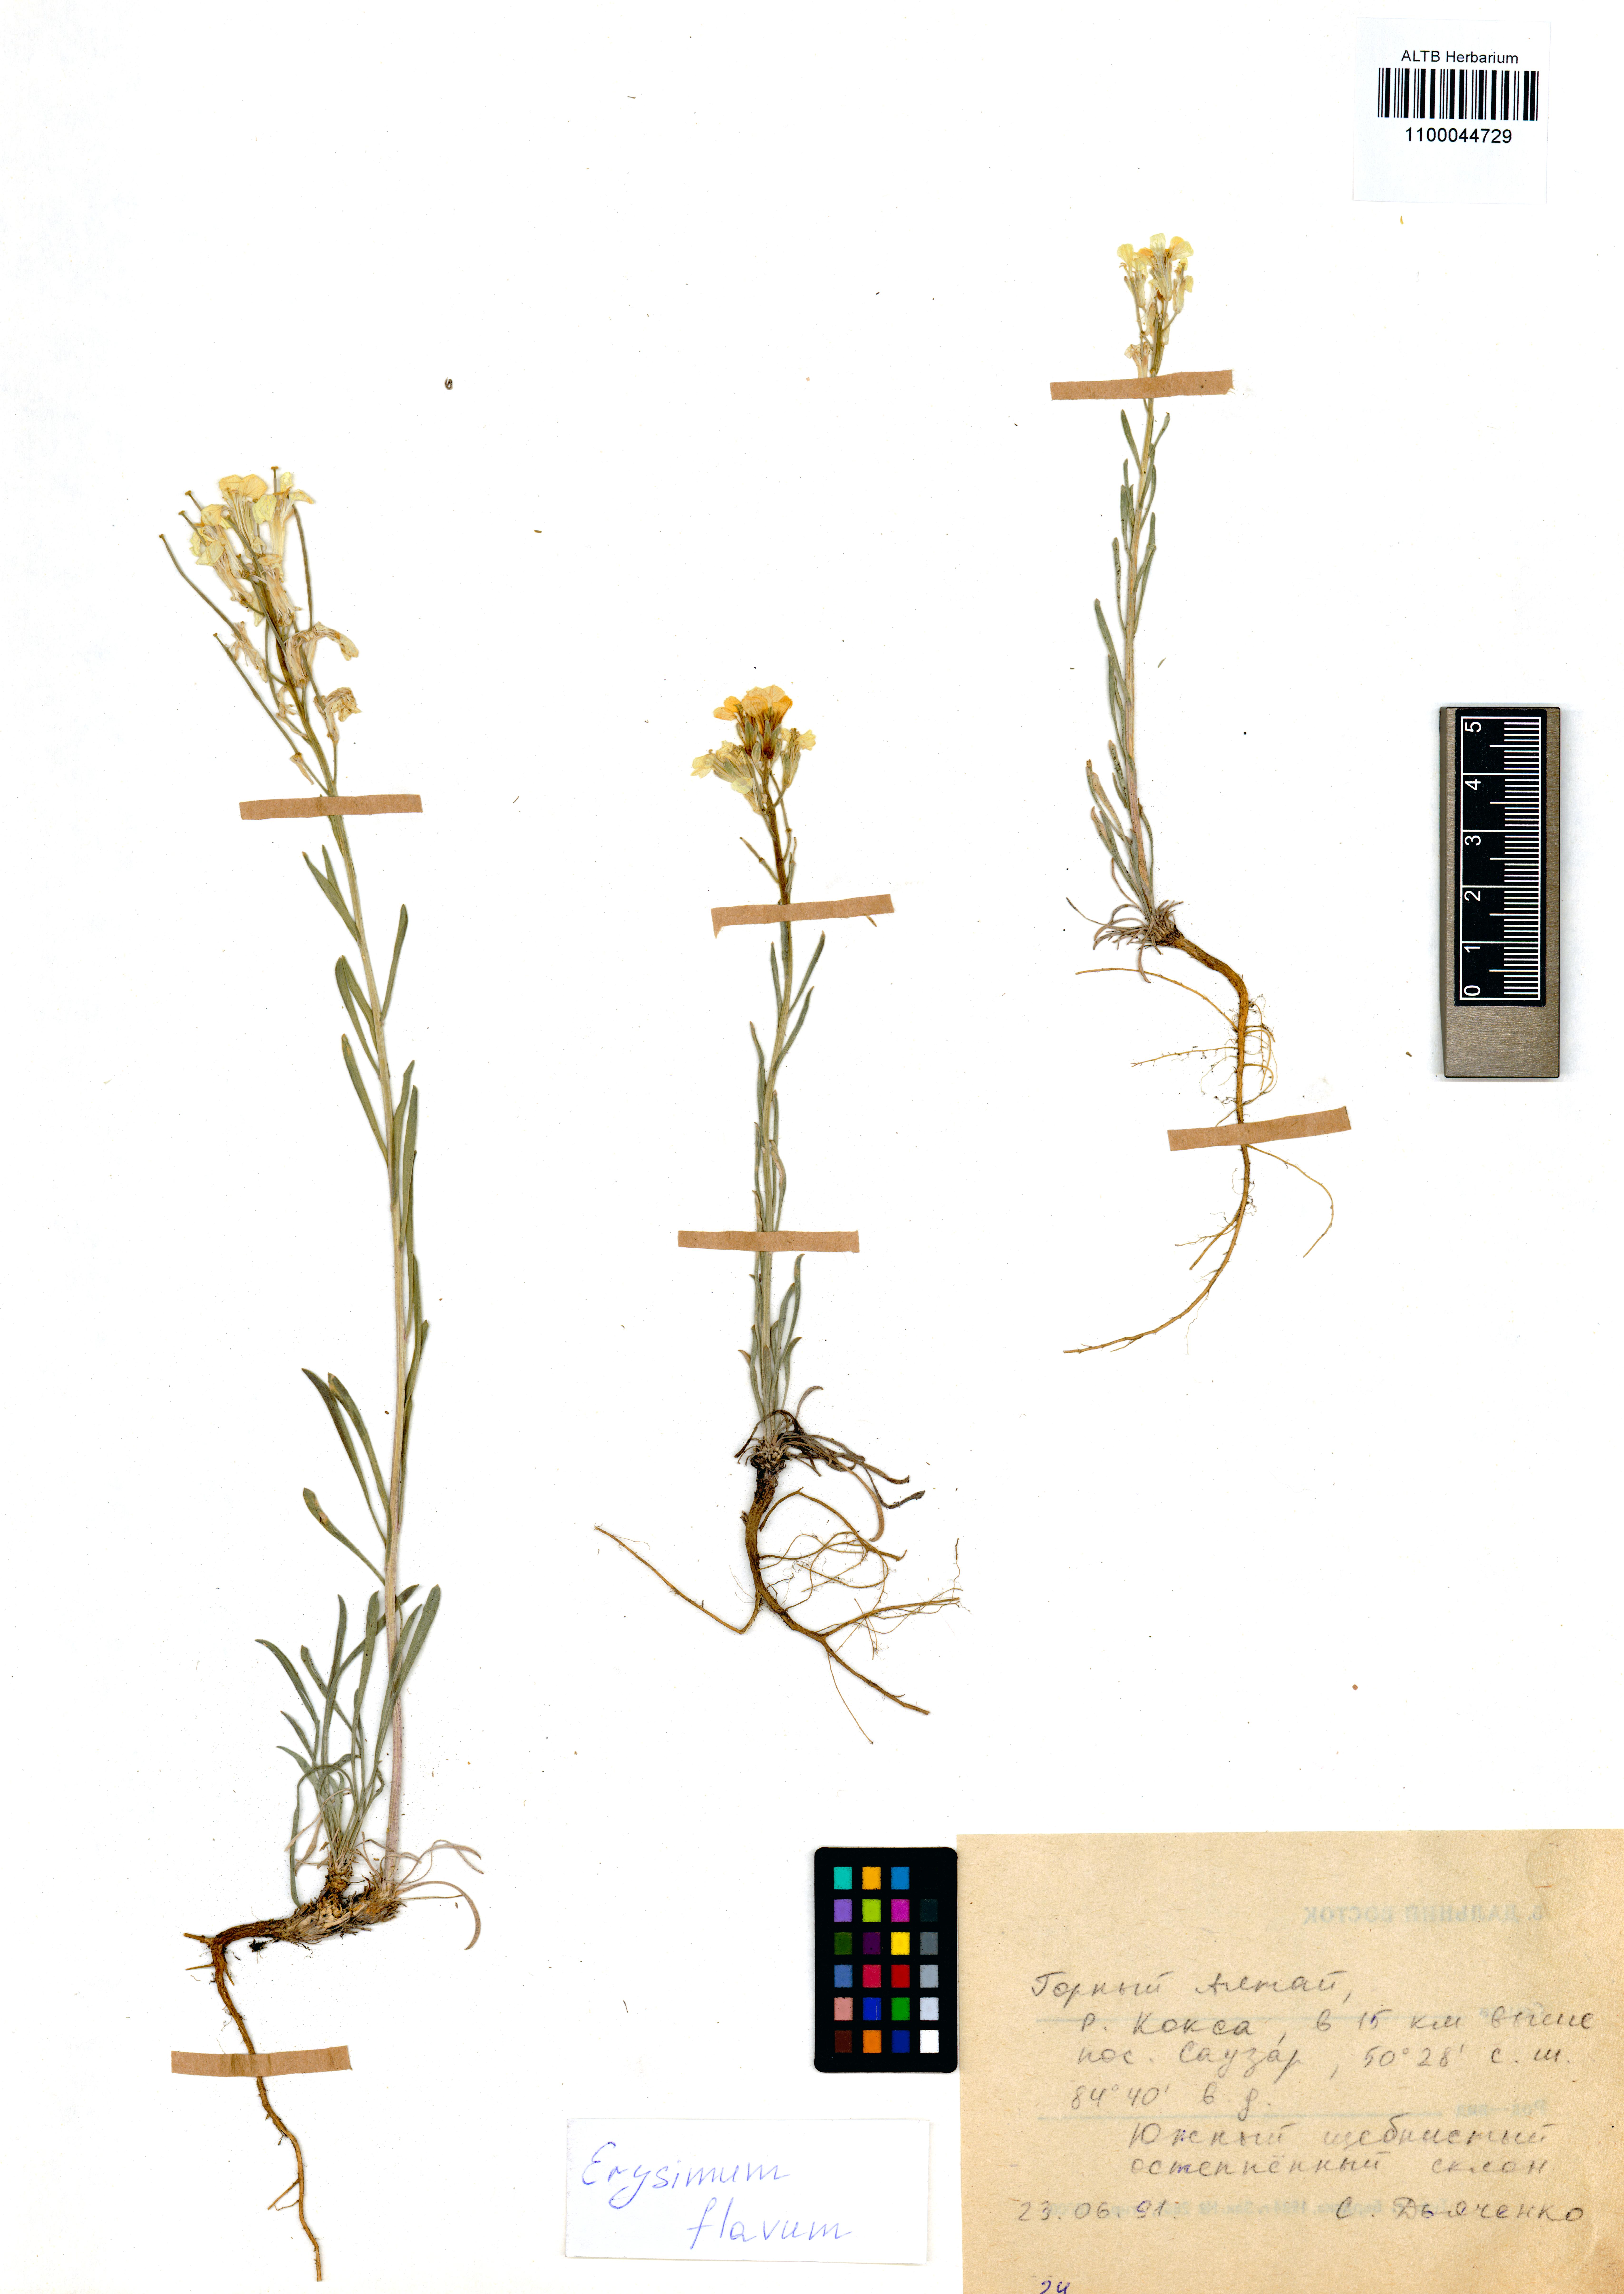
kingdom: Plantae
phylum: Tracheophyta
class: Magnoliopsida
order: Brassicales
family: Brassicaceae
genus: Erysimum
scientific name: Erysimum flavum
